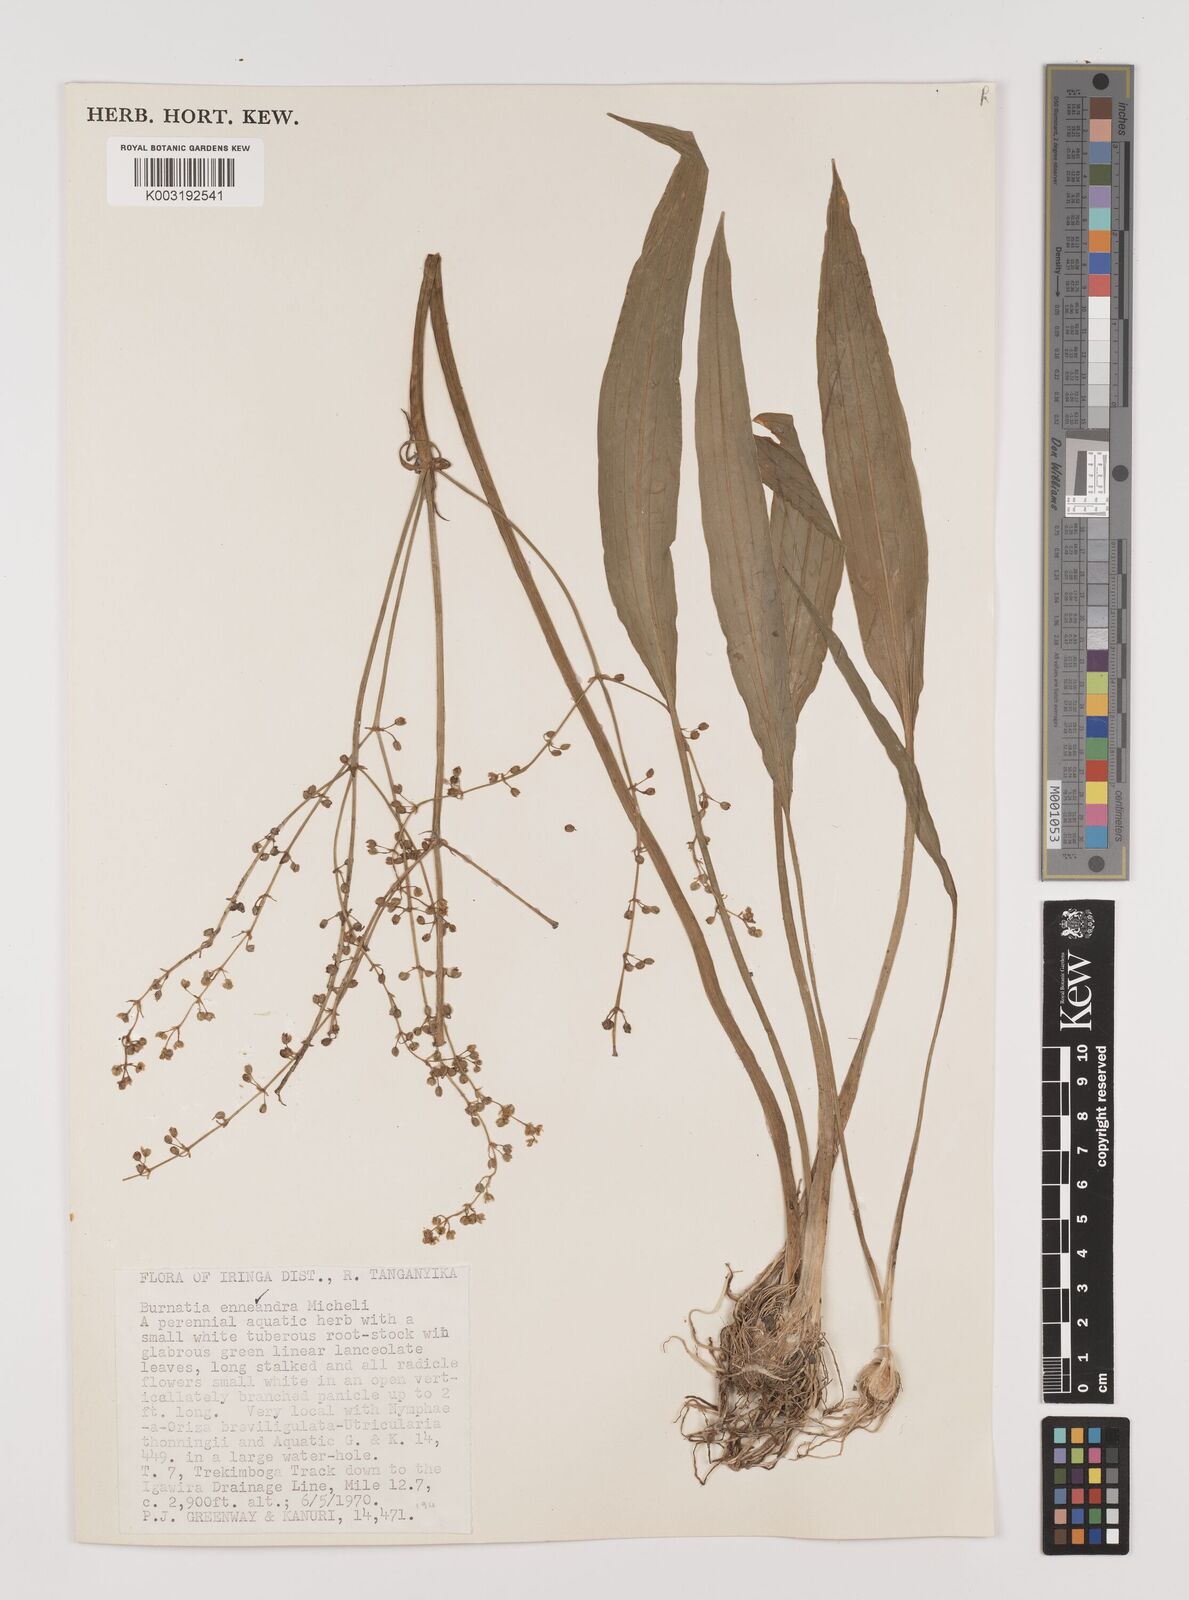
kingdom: Plantae
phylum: Tracheophyta
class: Liliopsida
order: Alismatales
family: Alismataceae
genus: Burnatia
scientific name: Burnatia enneandra
